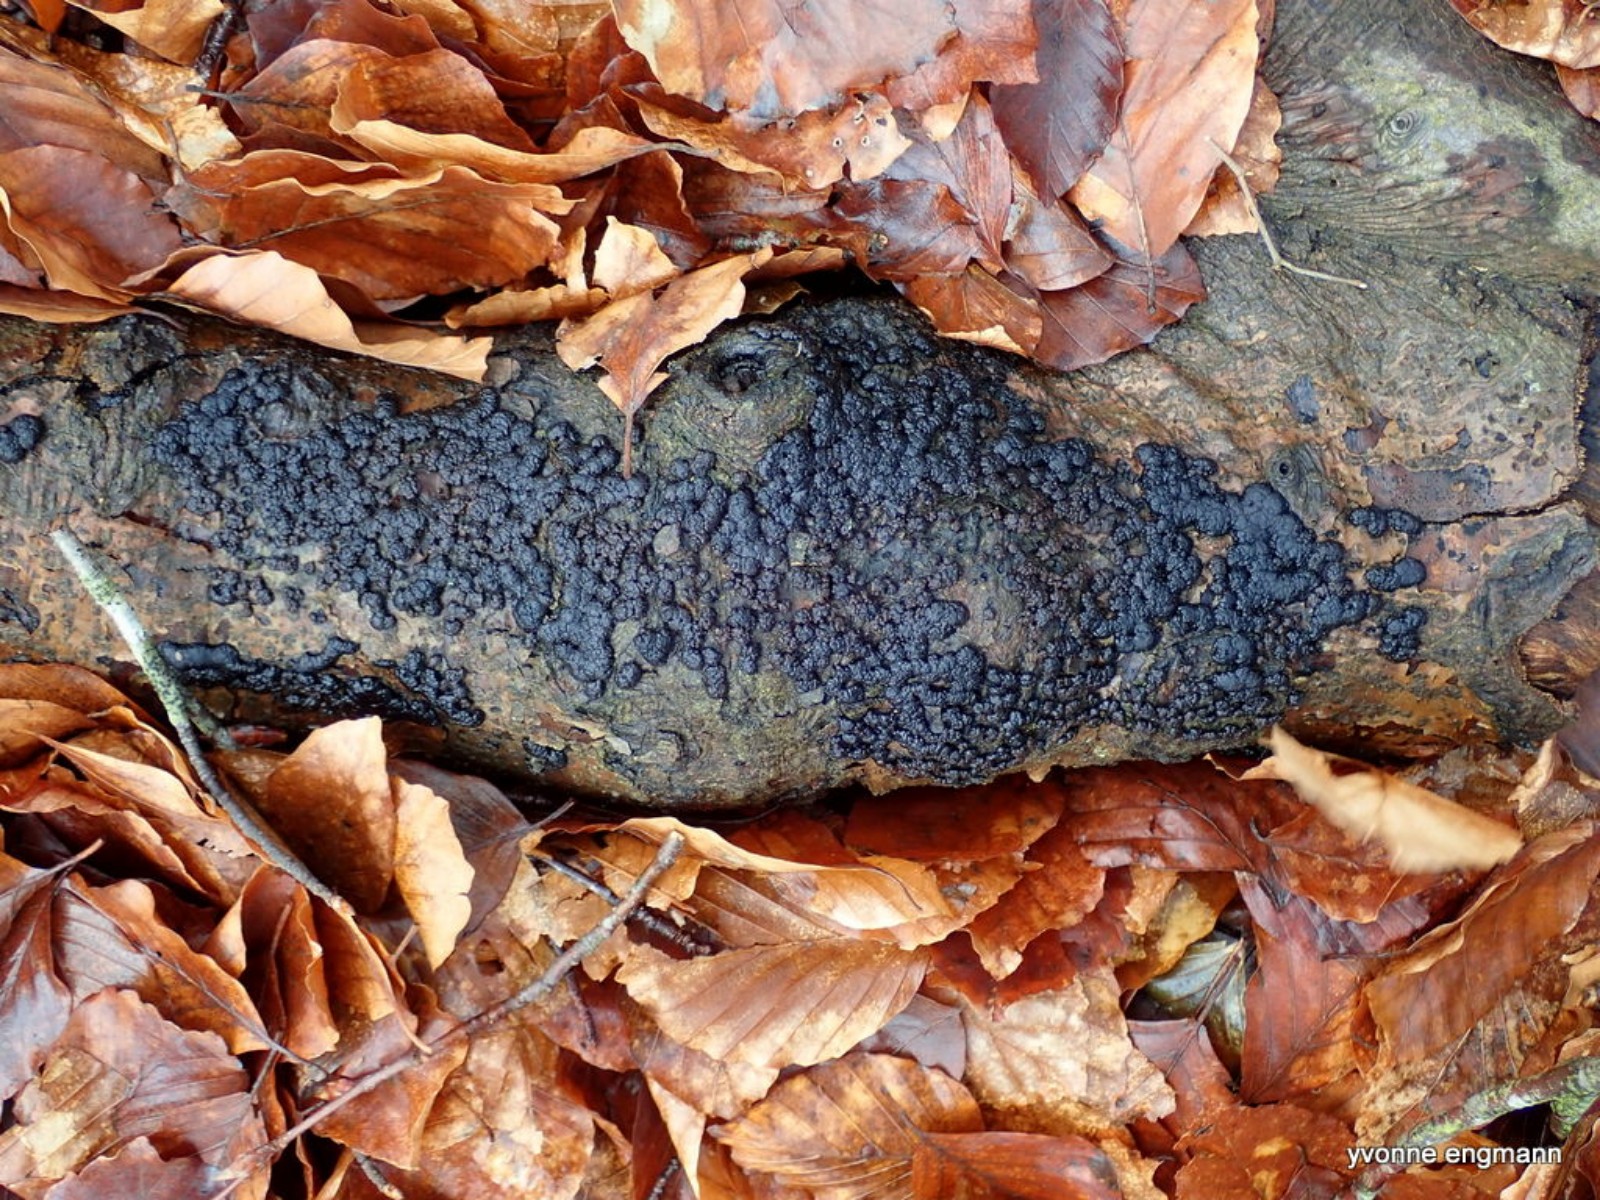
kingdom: Fungi
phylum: Ascomycota
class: Sordariomycetes
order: Xylariales
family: Hypoxylaceae
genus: Jackrogersella
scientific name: Jackrogersella cohaerens
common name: sammenflydende kulbær
